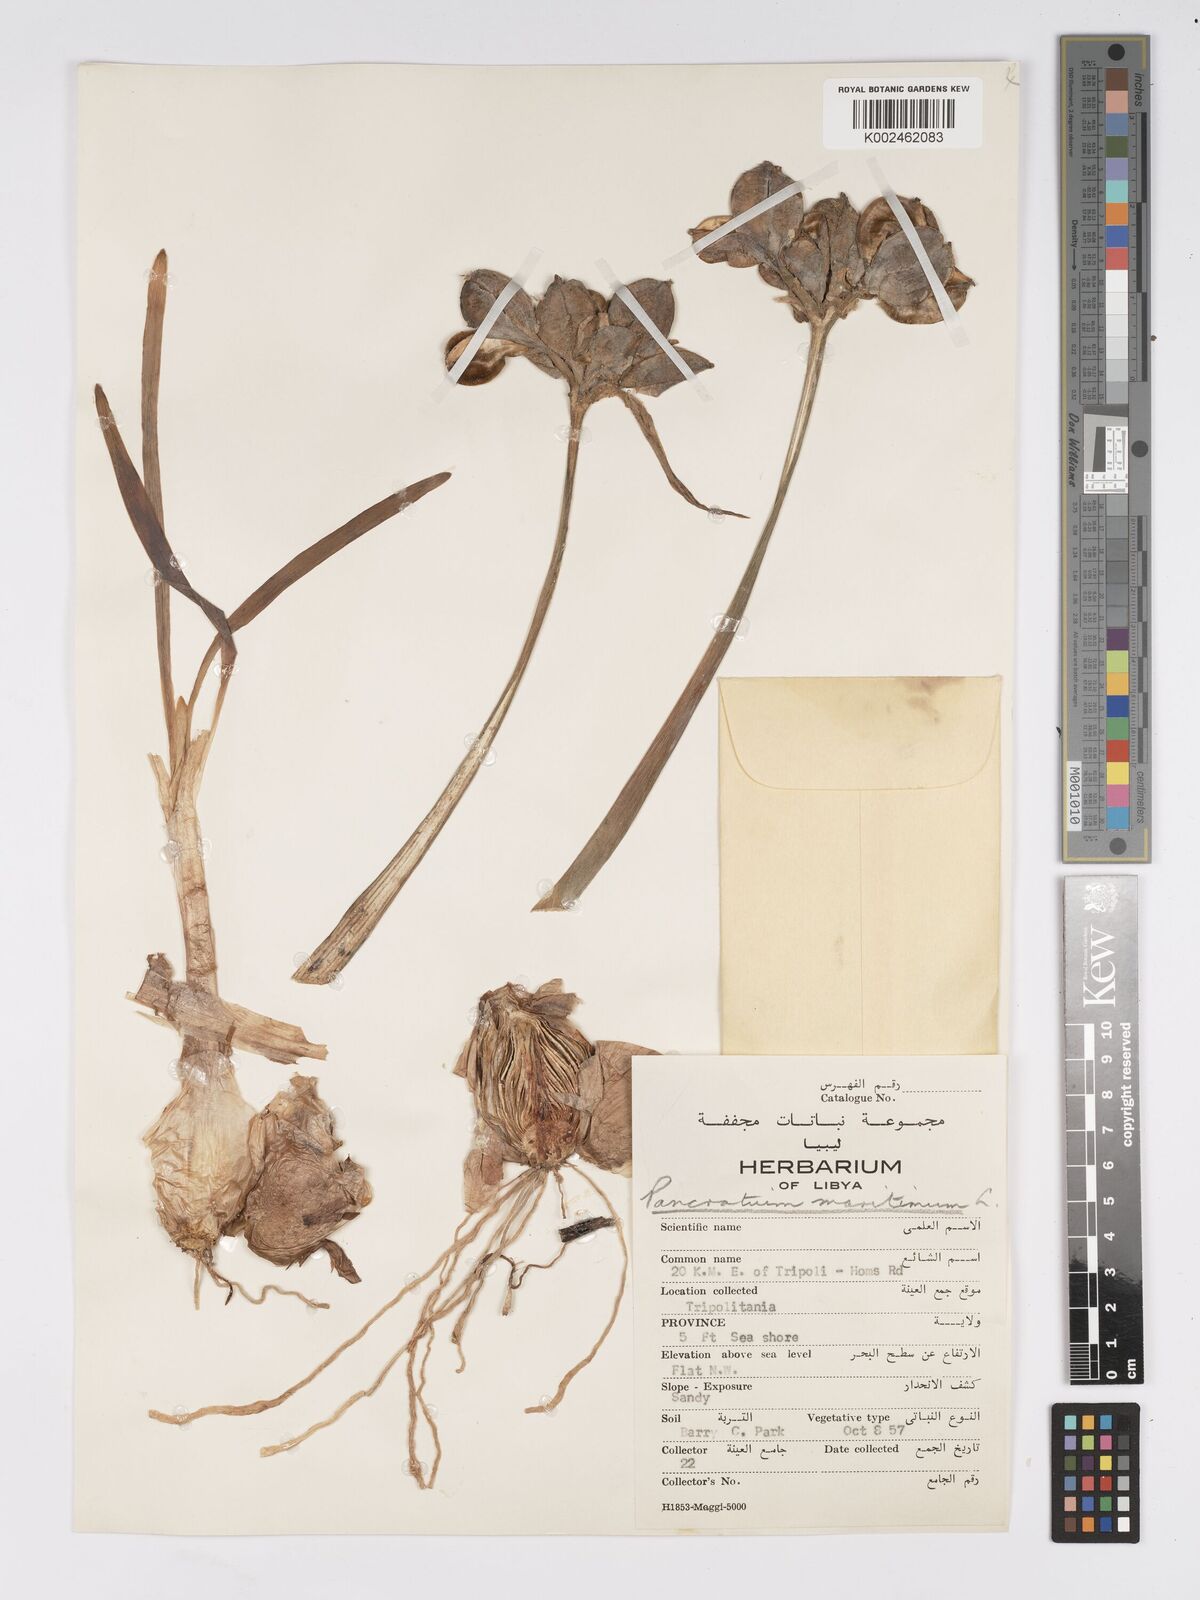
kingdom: Plantae
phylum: Tracheophyta
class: Liliopsida
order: Asparagales
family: Amaryllidaceae
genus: Pancratium
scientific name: Pancratium maritimum
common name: Sea-daffodil
